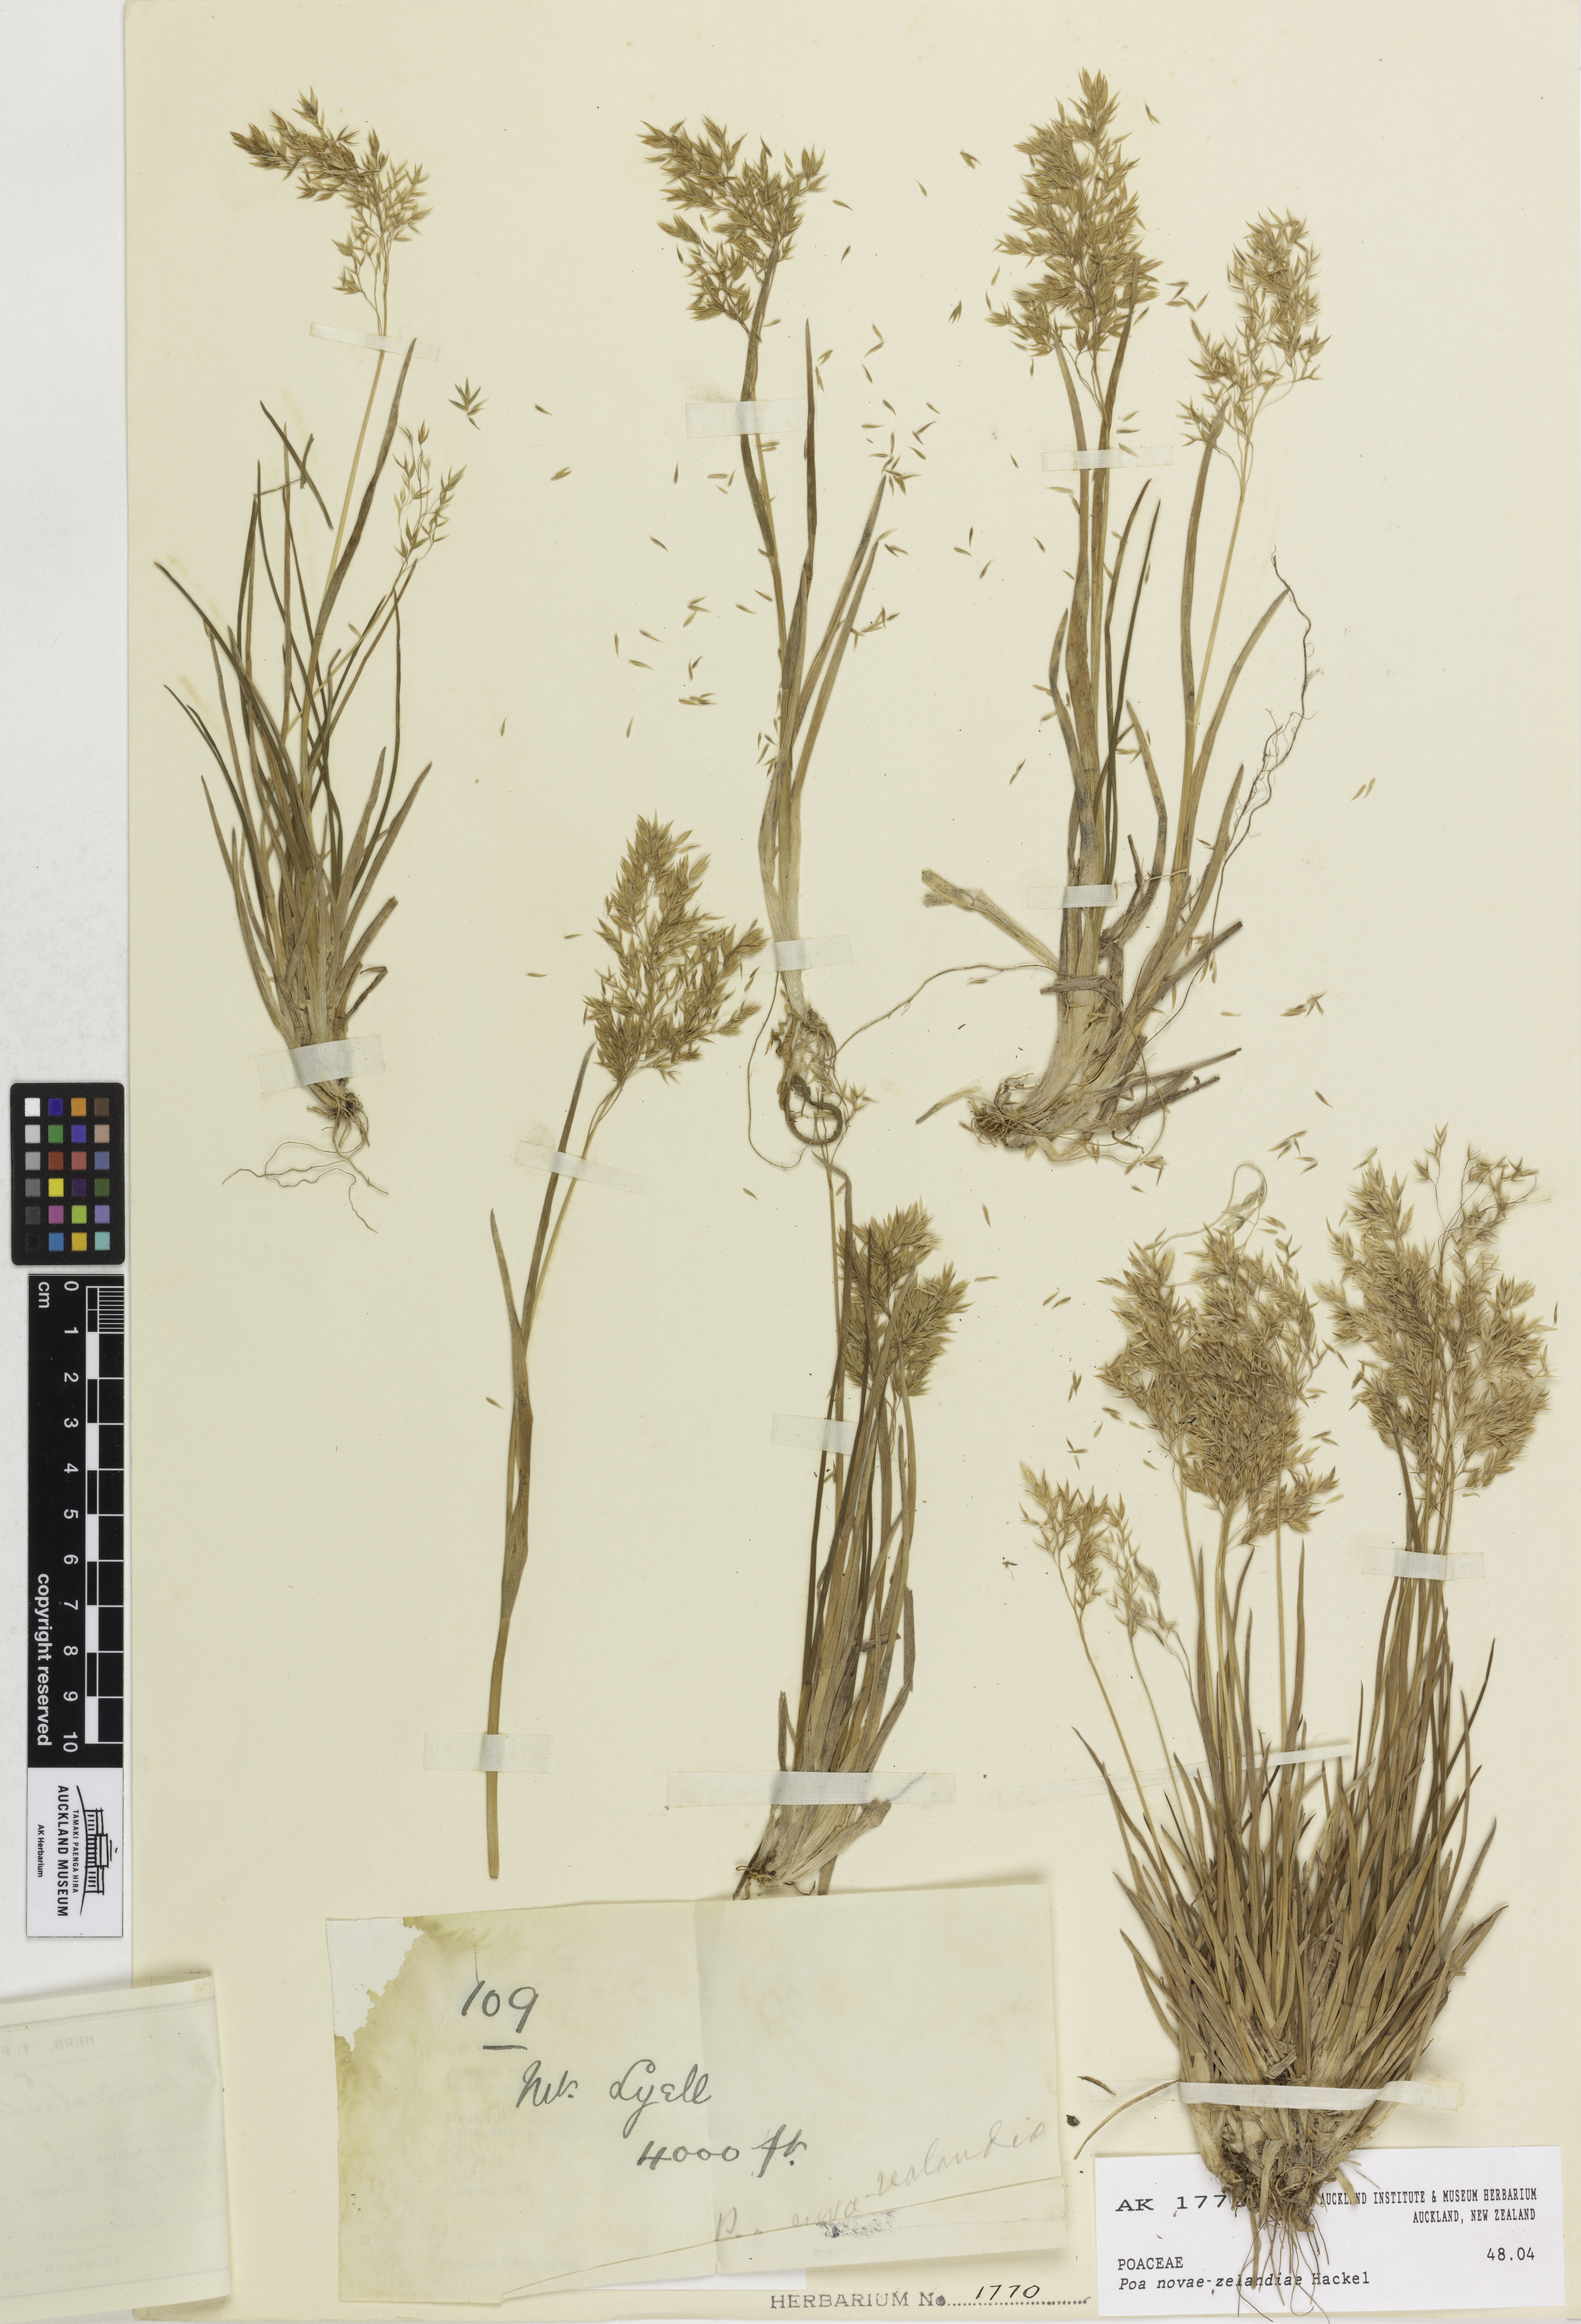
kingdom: Plantae
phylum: Tracheophyta
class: Liliopsida
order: Poales
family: Poaceae
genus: Poa
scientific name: Poa novae-zelandiae
